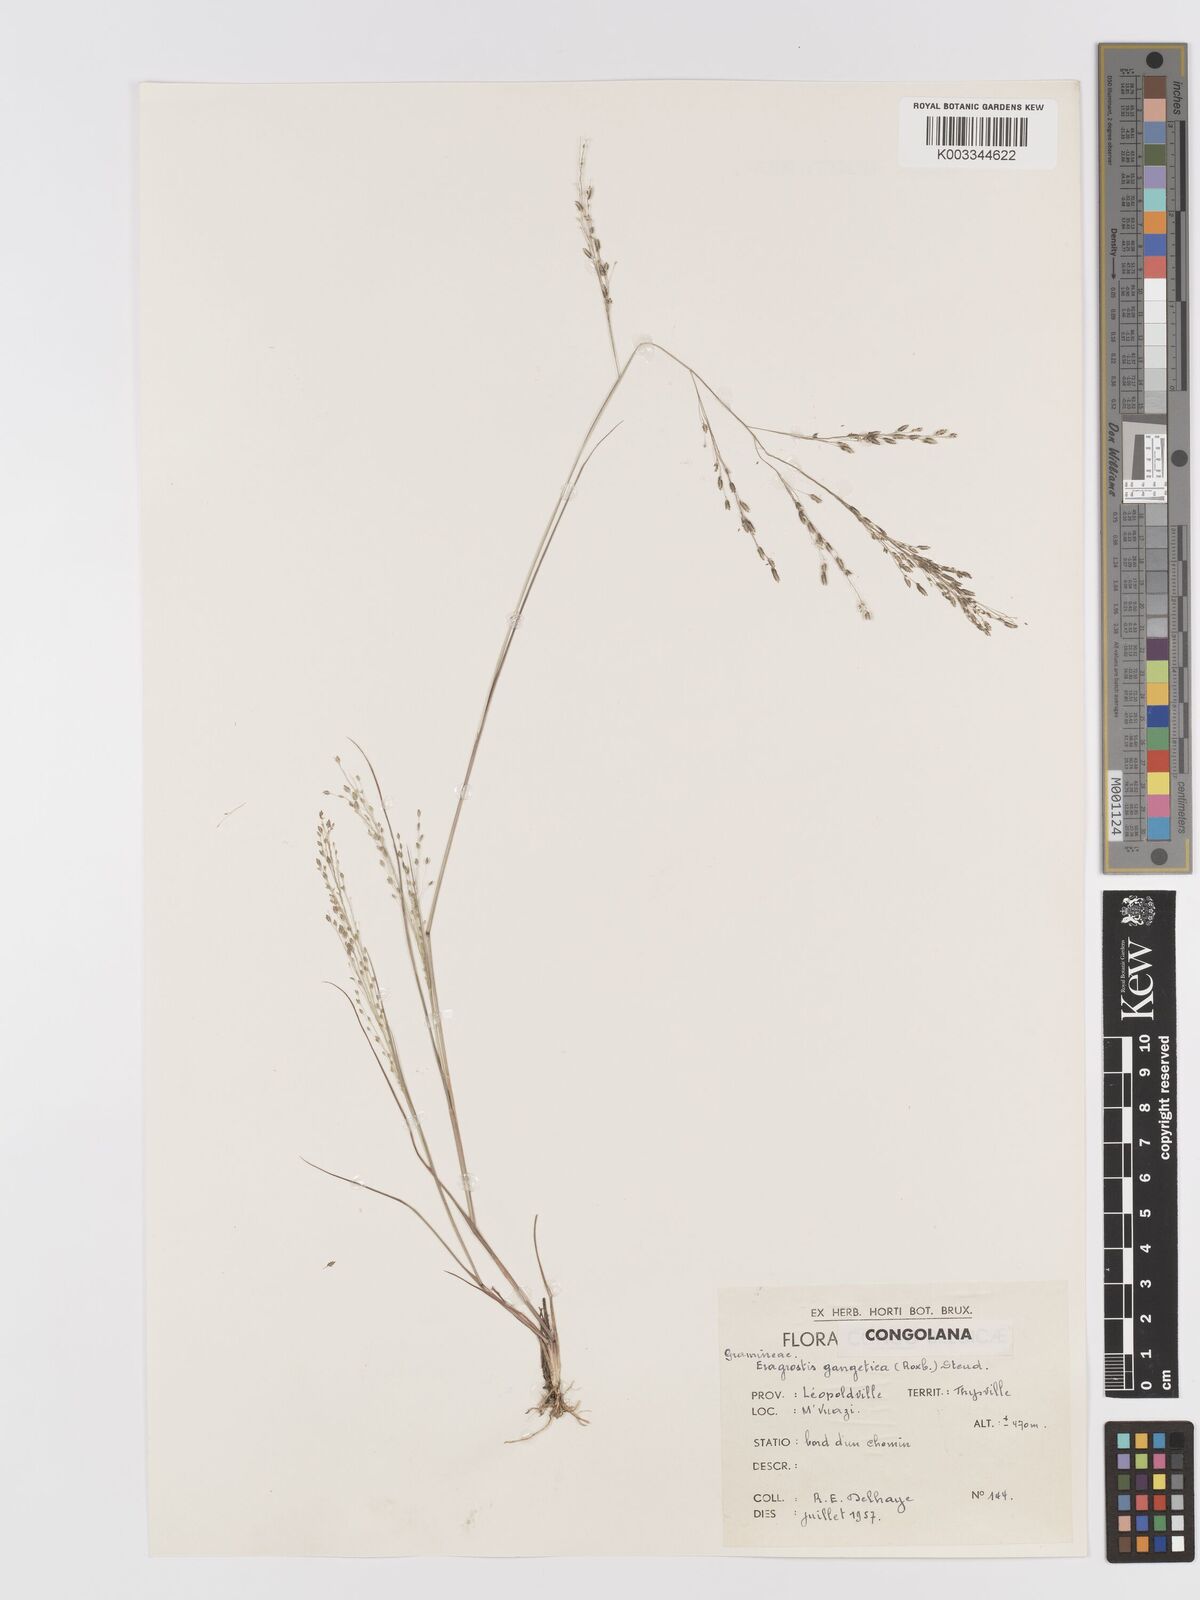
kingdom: Plantae
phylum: Tracheophyta
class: Liliopsida
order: Poales
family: Poaceae
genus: Eragrostis
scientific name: Eragrostis gangetica
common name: Slimflower lovegrass
